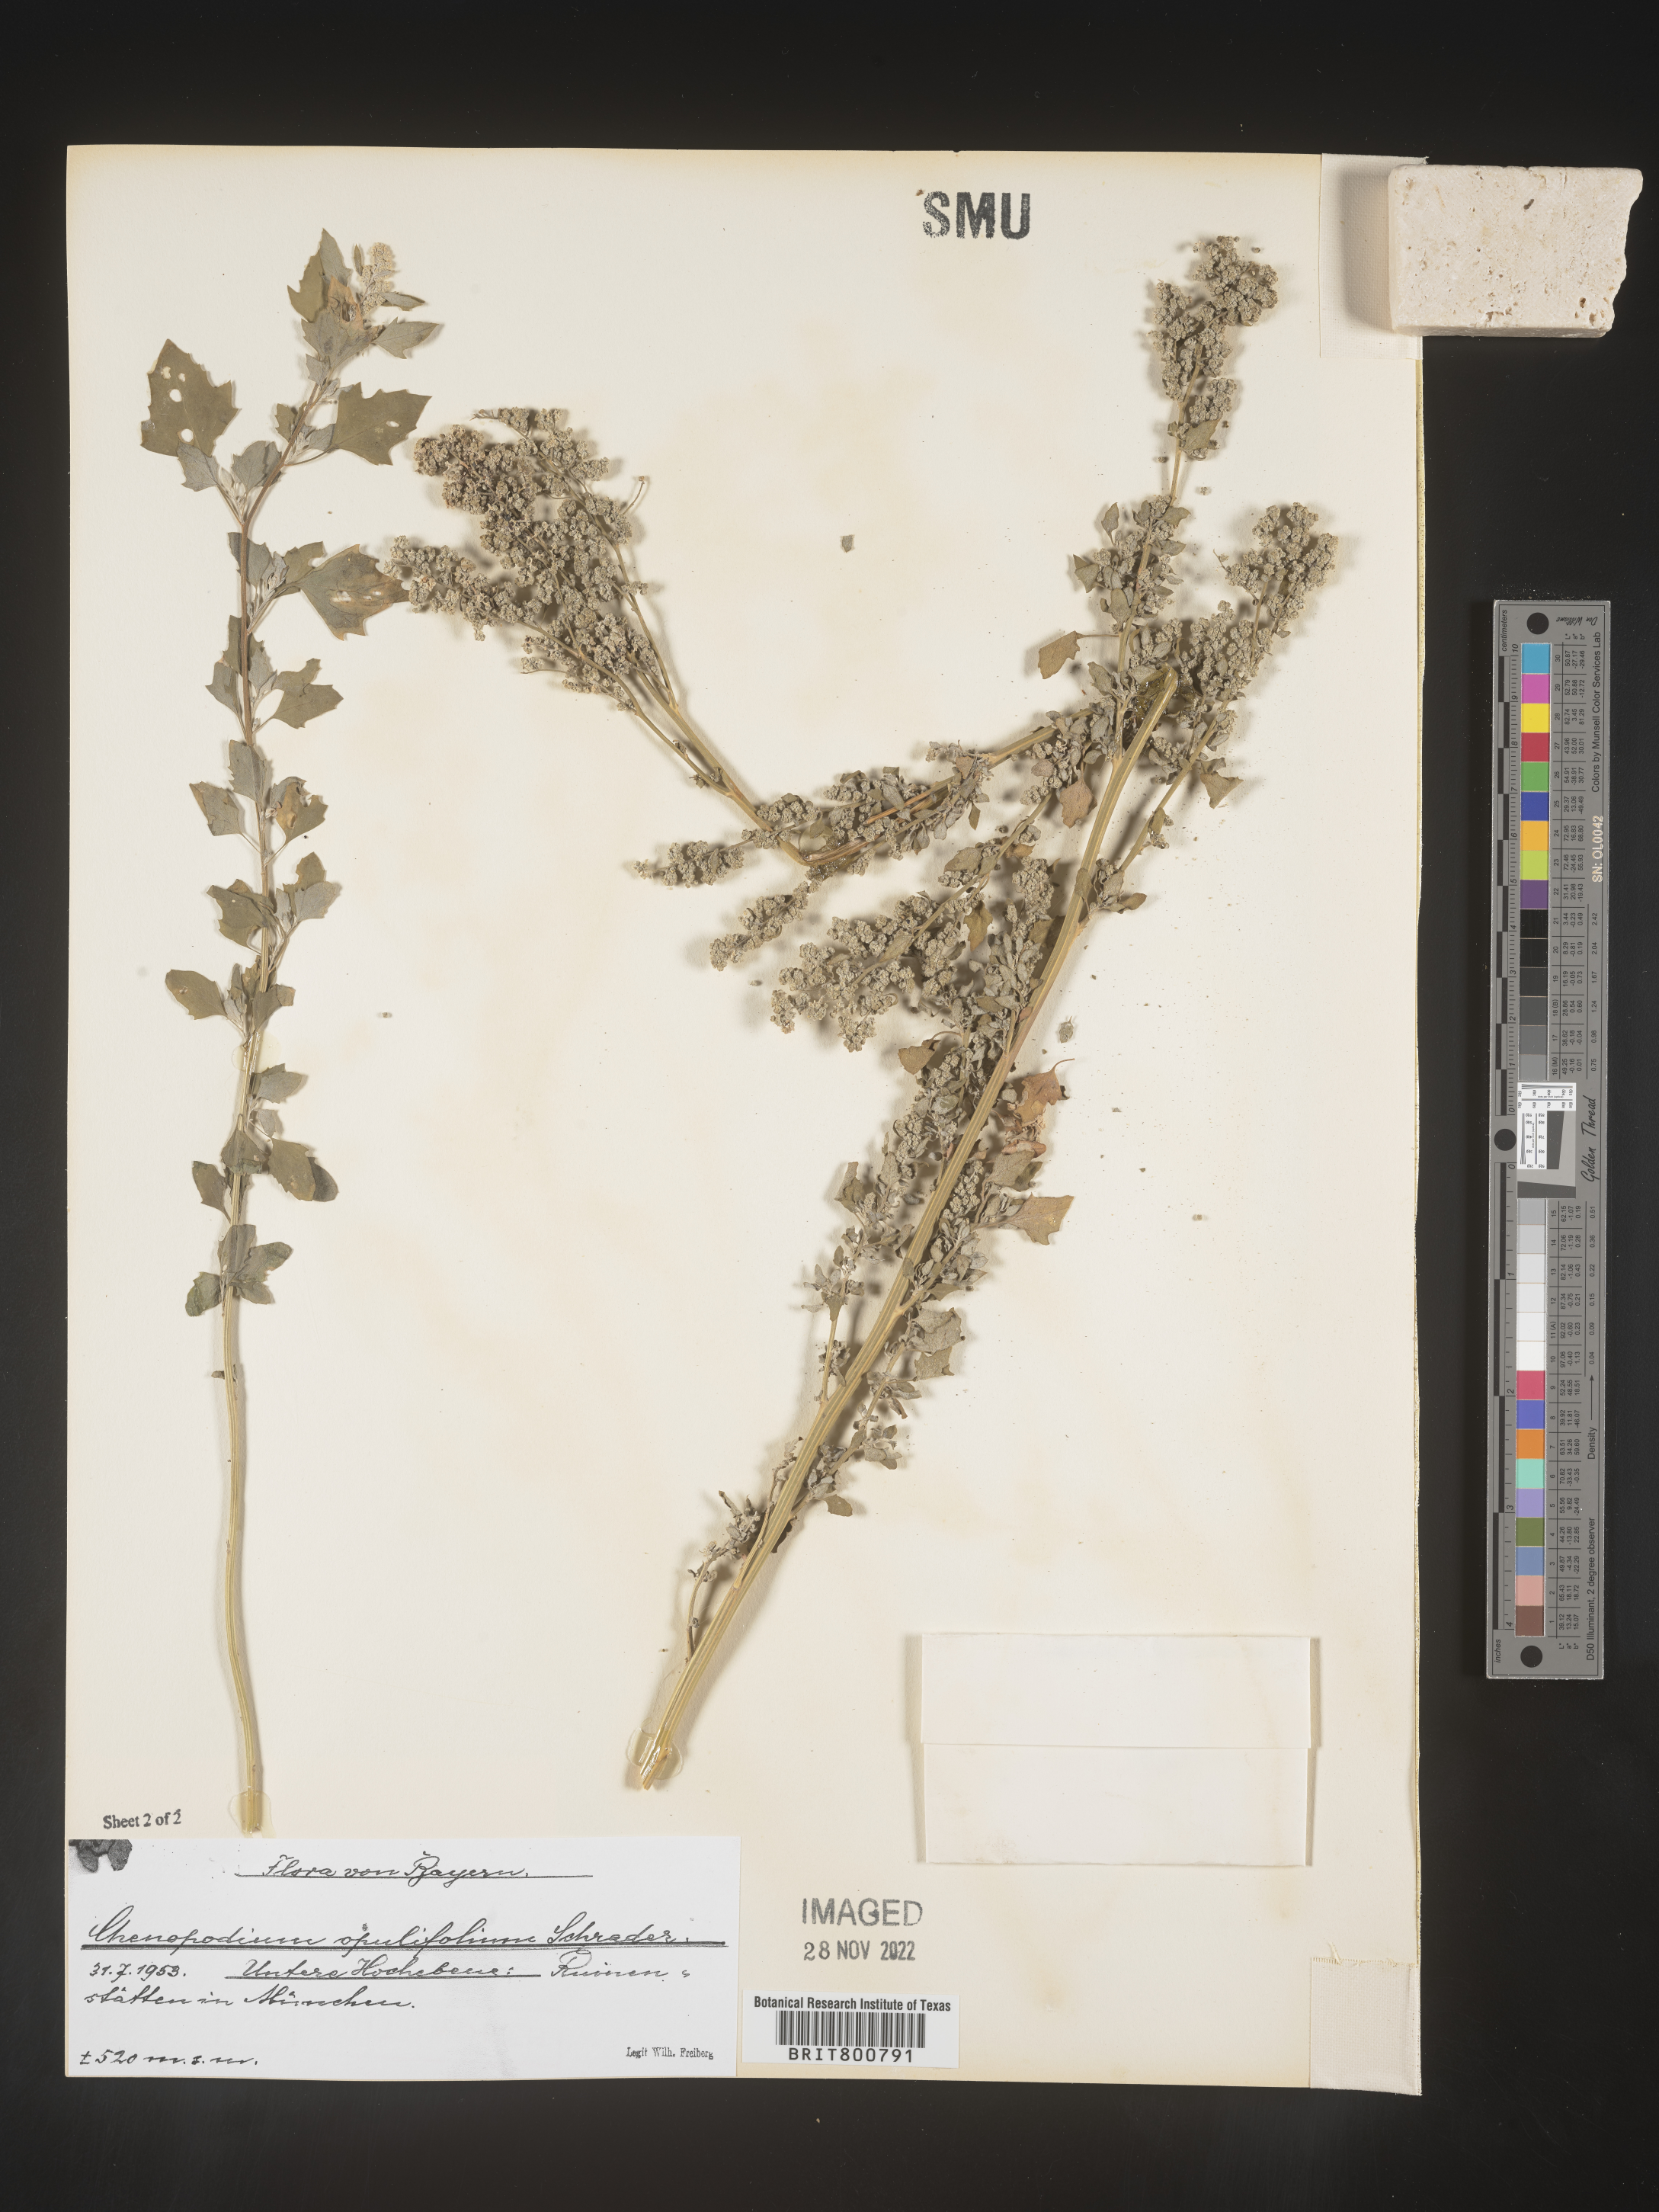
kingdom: Plantae
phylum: Tracheophyta
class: Magnoliopsida
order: Caryophyllales
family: Amaranthaceae
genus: Chenopodium
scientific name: Chenopodium opulifolium
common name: Grey goosefoot
